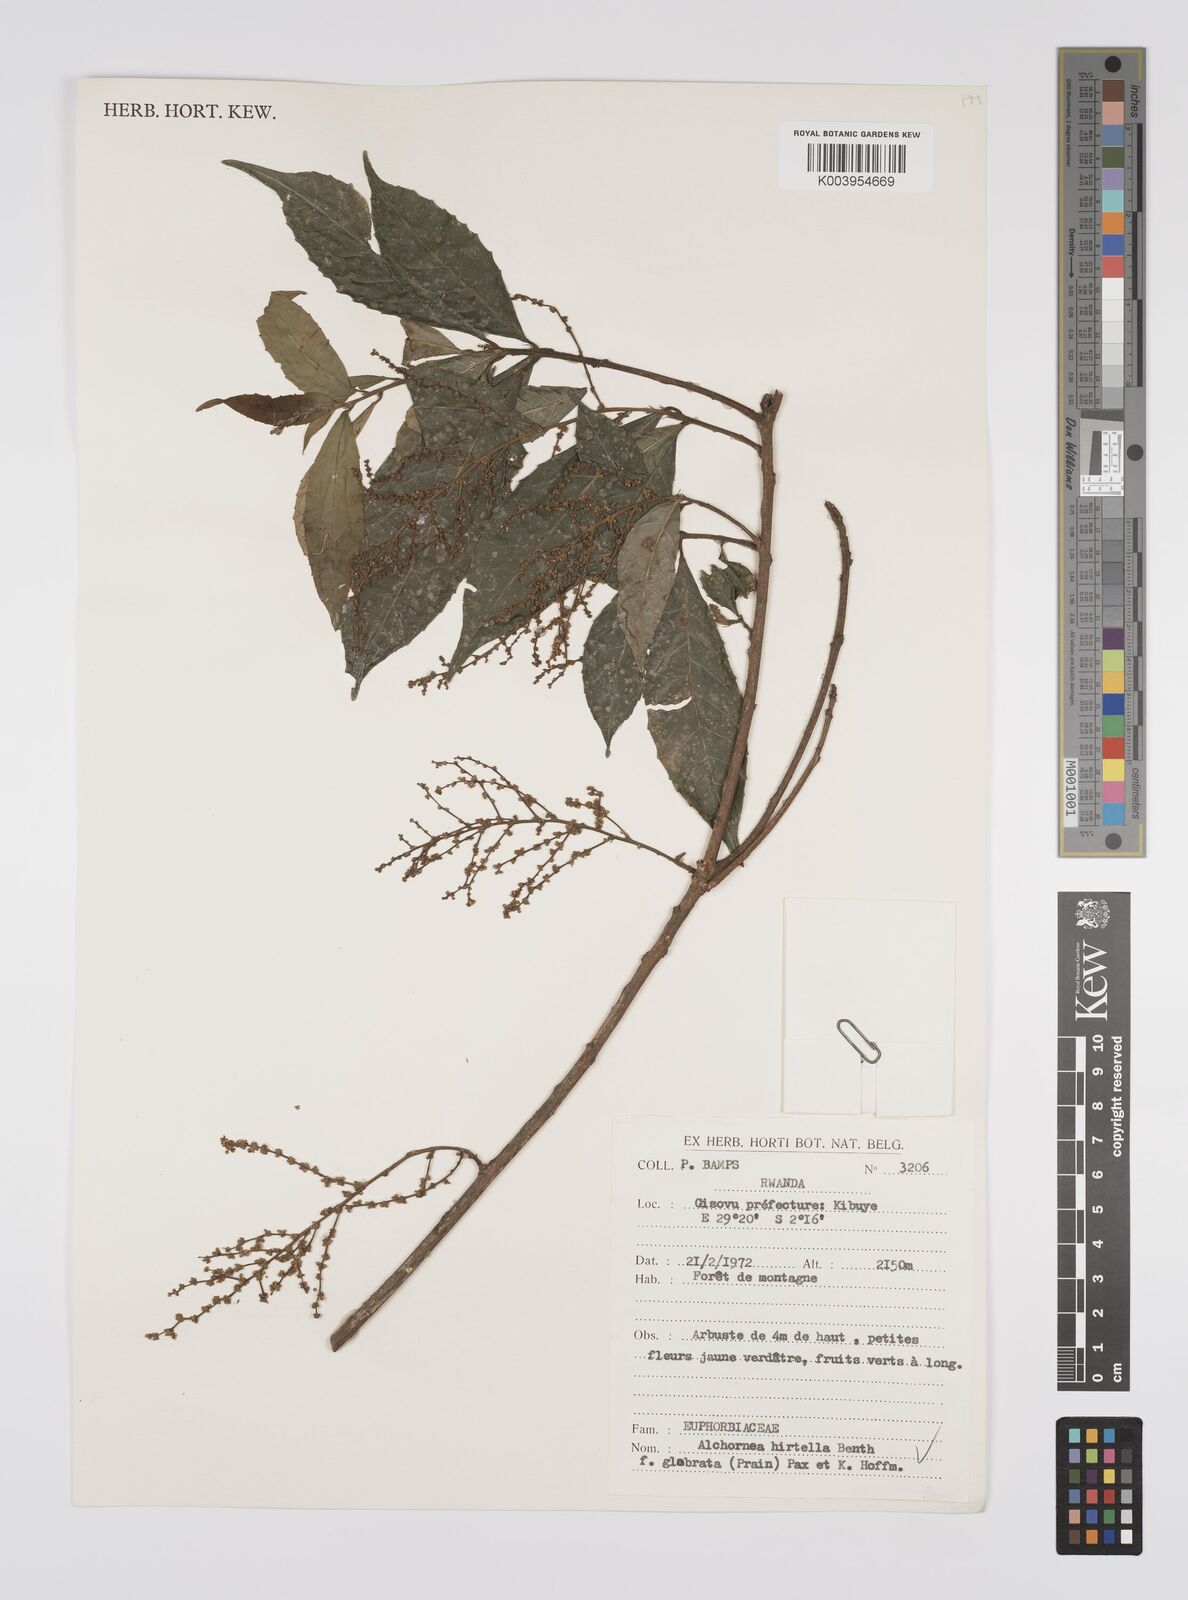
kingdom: Plantae
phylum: Tracheophyta
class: Magnoliopsida
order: Malpighiales
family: Euphorbiaceae
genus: Alchornea
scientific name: Alchornea hirtella
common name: Forest bead-string
